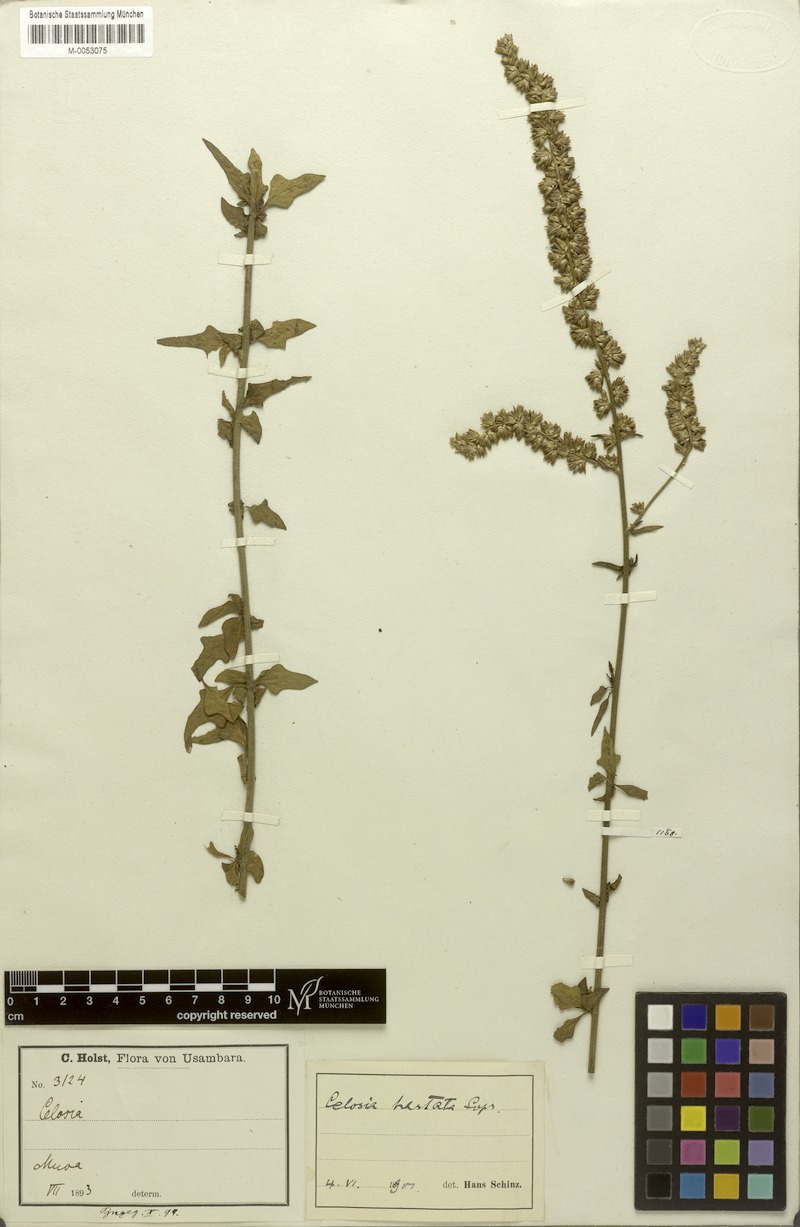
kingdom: Plantae
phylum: Tracheophyta
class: Magnoliopsida
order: Caryophyllales
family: Amaranthaceae
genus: Celosia
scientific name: Celosia hastata
